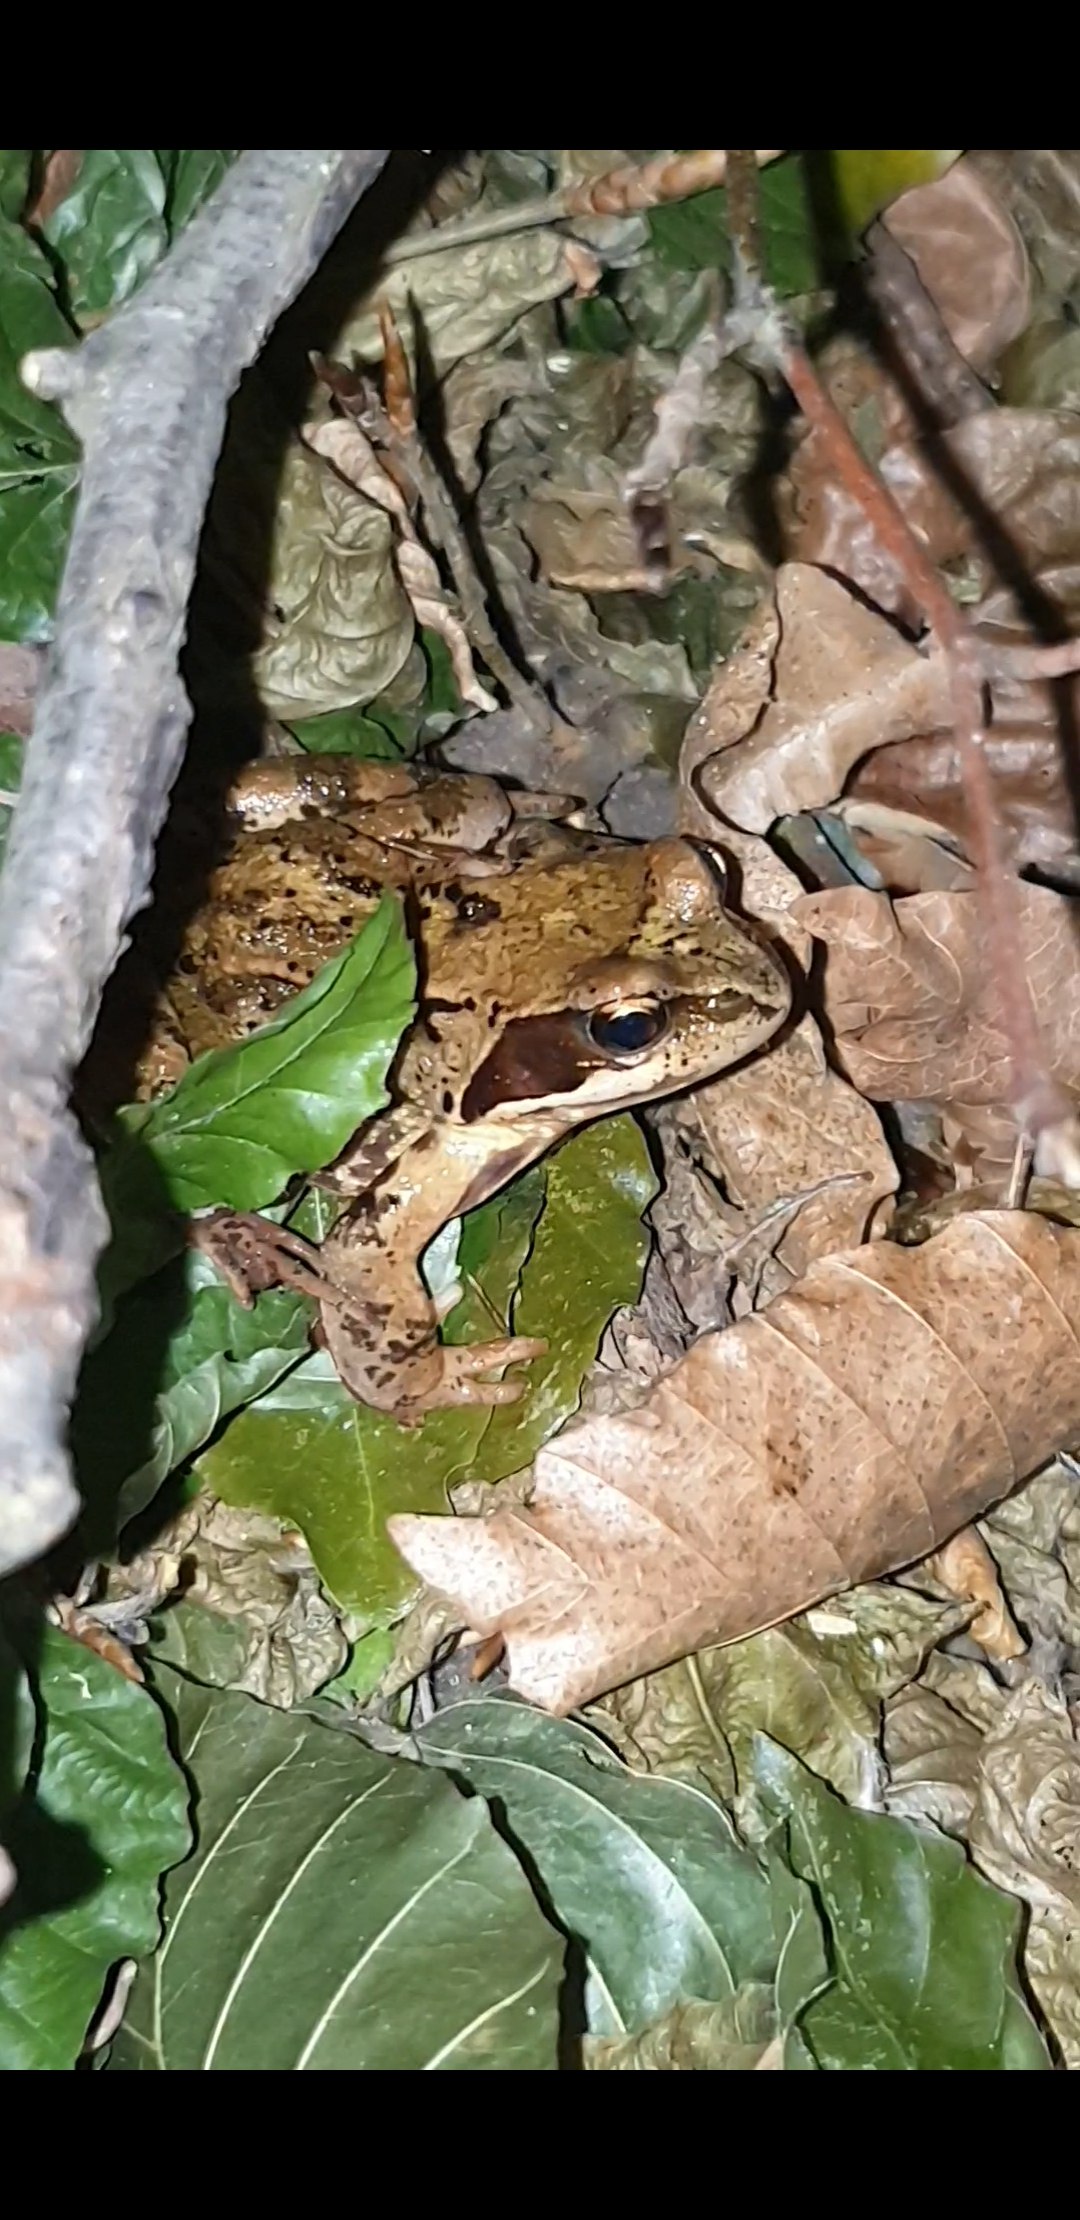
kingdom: Animalia
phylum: Chordata
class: Amphibia
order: Anura
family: Ranidae
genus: Rana
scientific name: Rana temporaria
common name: Butsnudet frø
